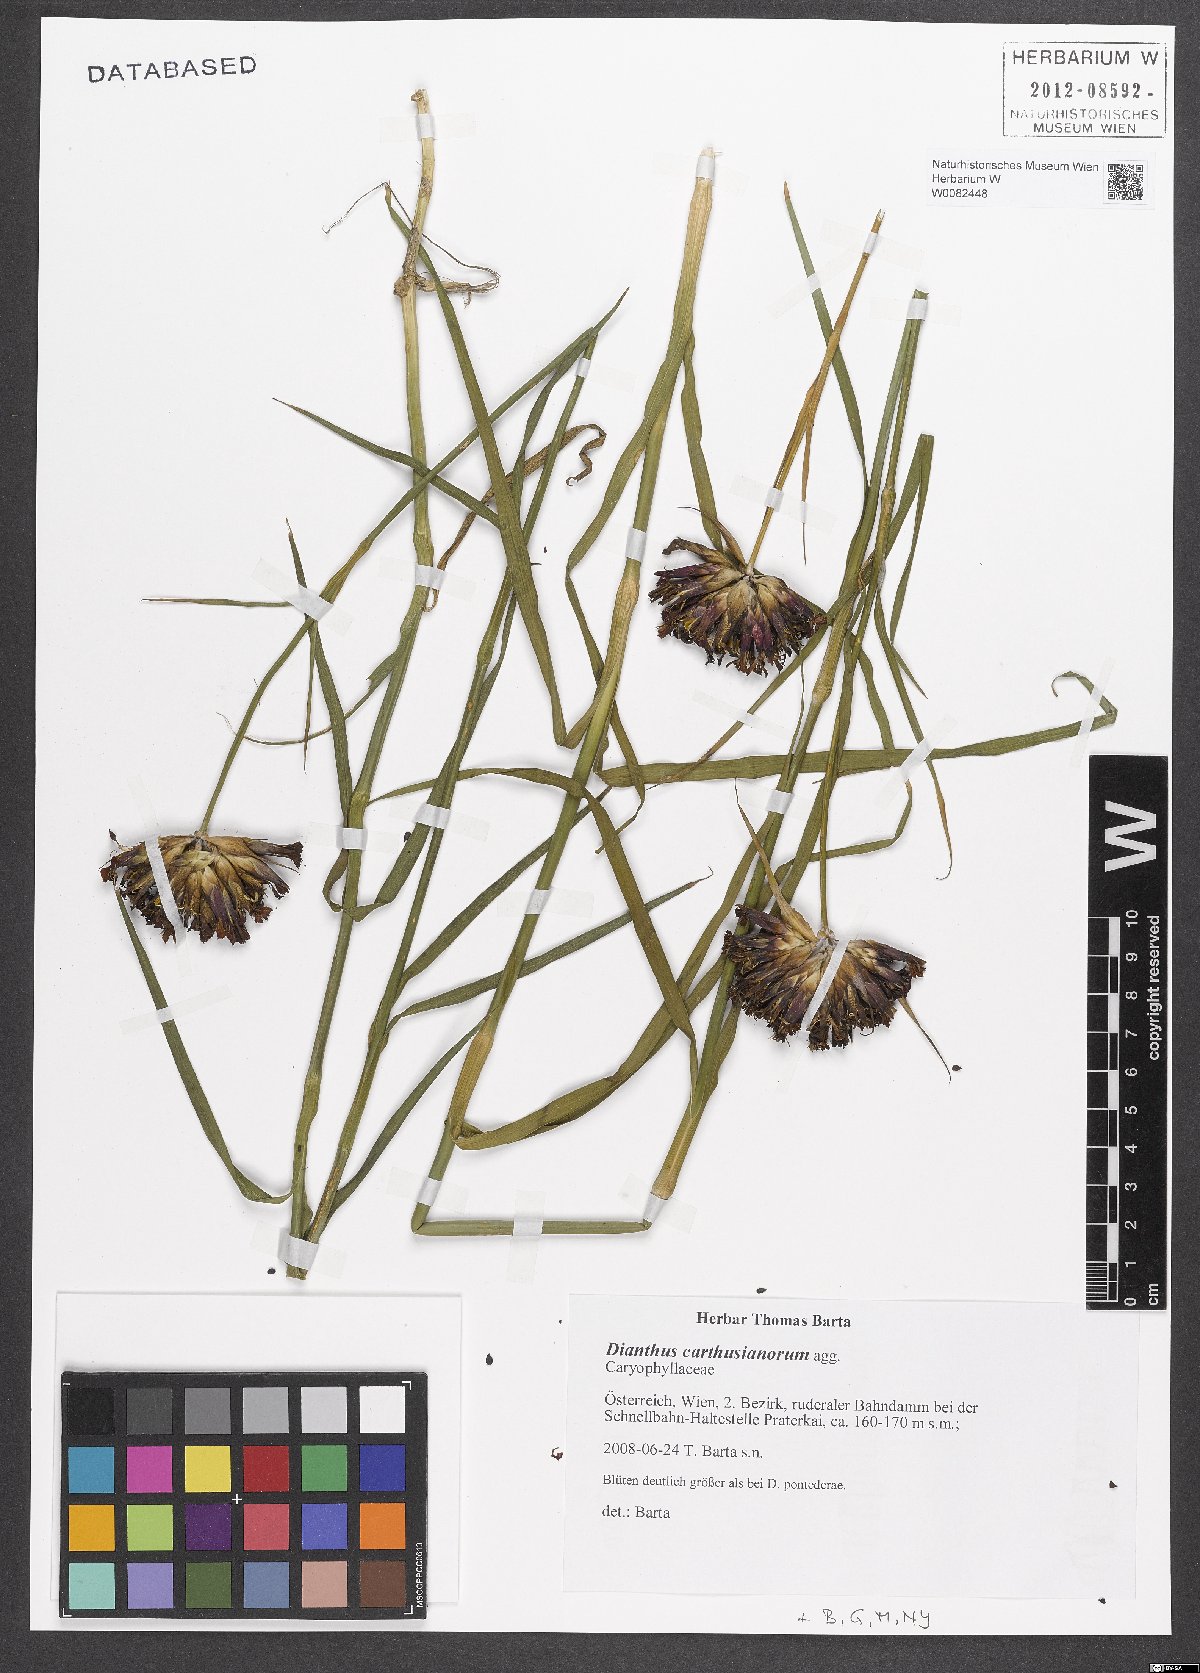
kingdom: Plantae
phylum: Tracheophyta
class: Magnoliopsida
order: Caryophyllales
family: Caryophyllaceae
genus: Dianthus
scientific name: Dianthus carthusianorum
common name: Carthusian pink
